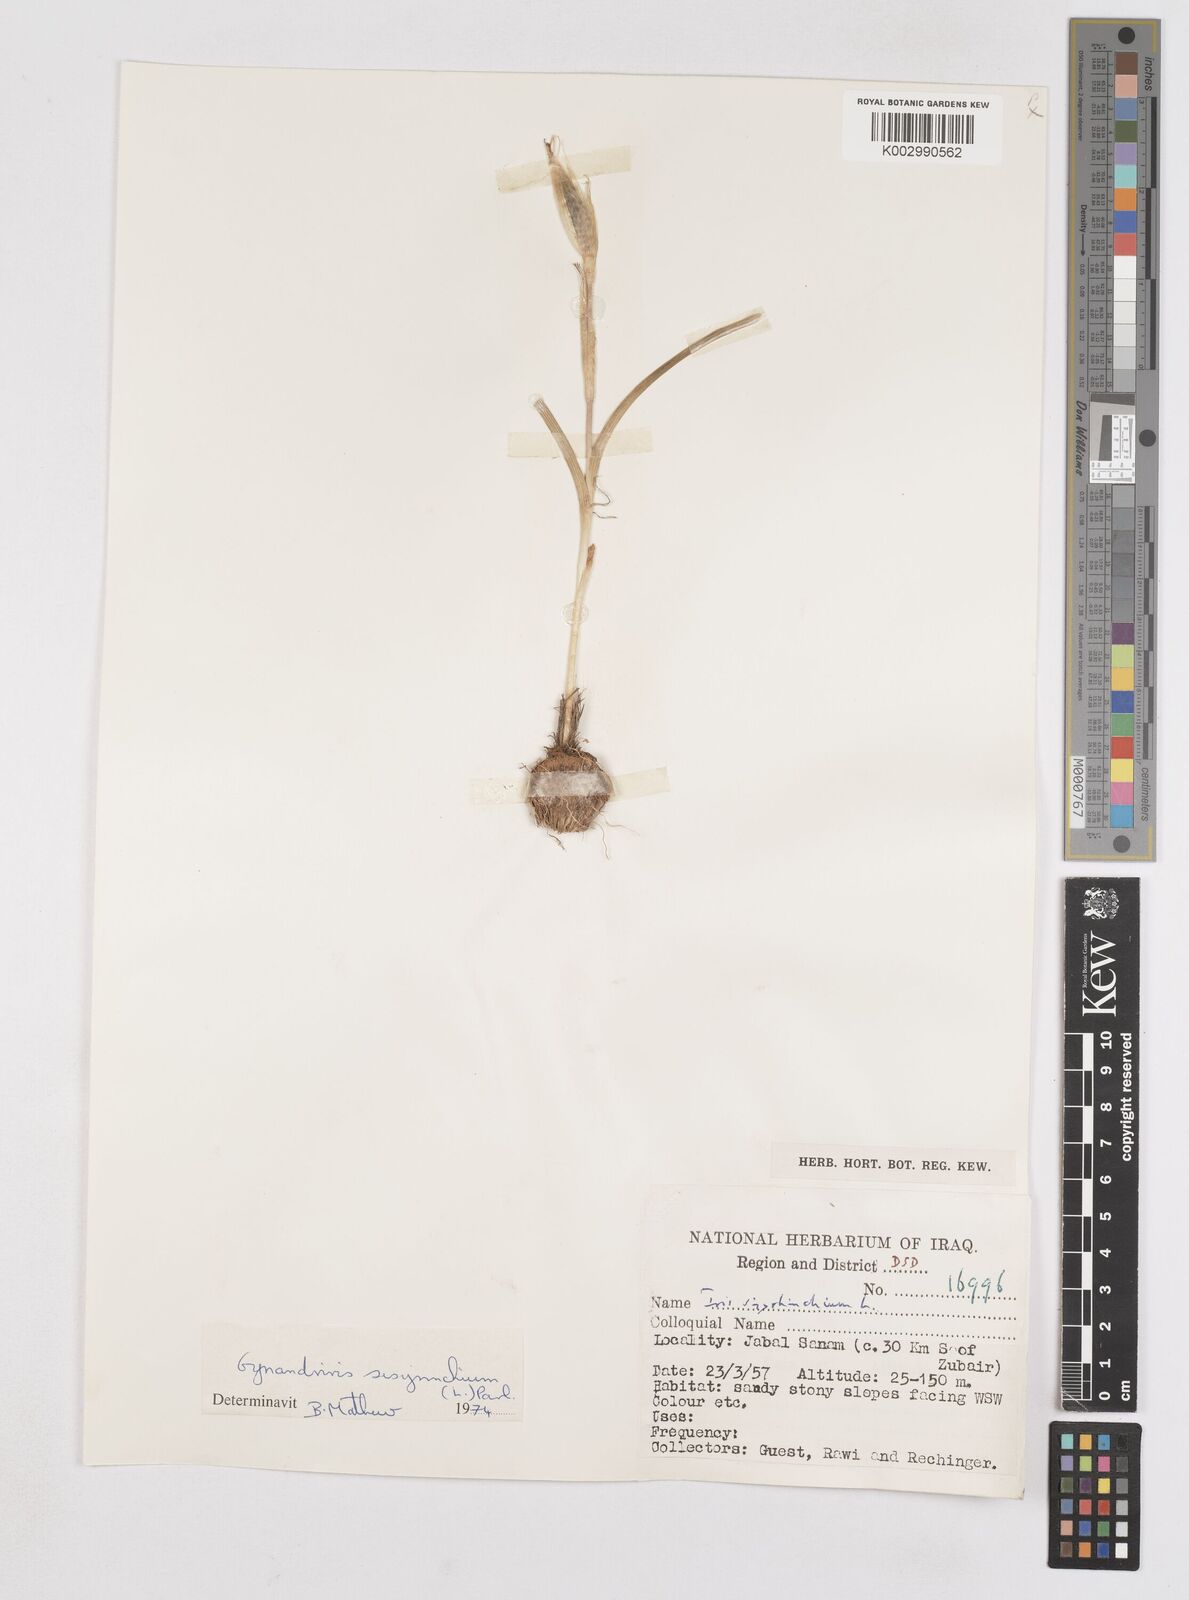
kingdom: Plantae
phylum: Tracheophyta
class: Liliopsida
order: Asparagales
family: Iridaceae
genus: Moraea
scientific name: Moraea sisyrinchium
